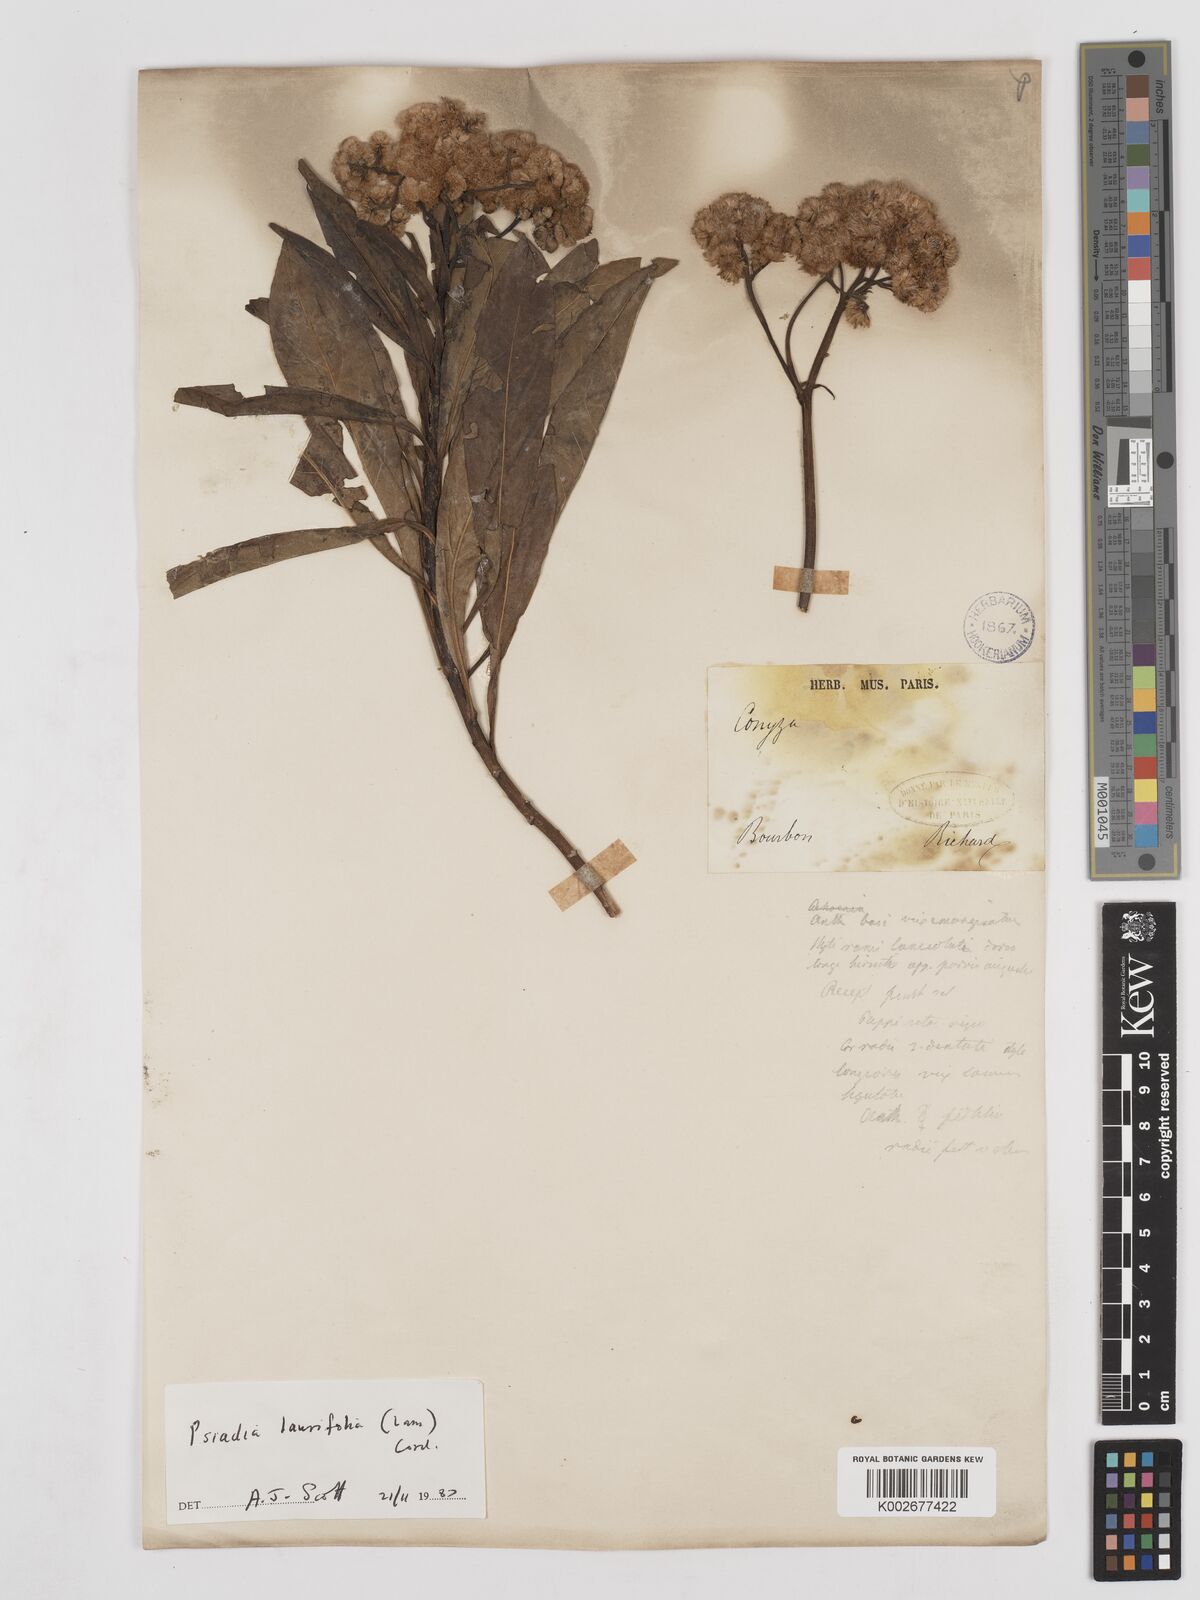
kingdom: Plantae
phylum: Tracheophyta
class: Magnoliopsida
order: Asterales
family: Asteraceae
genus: Psiadia
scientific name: Psiadia laurifolia
